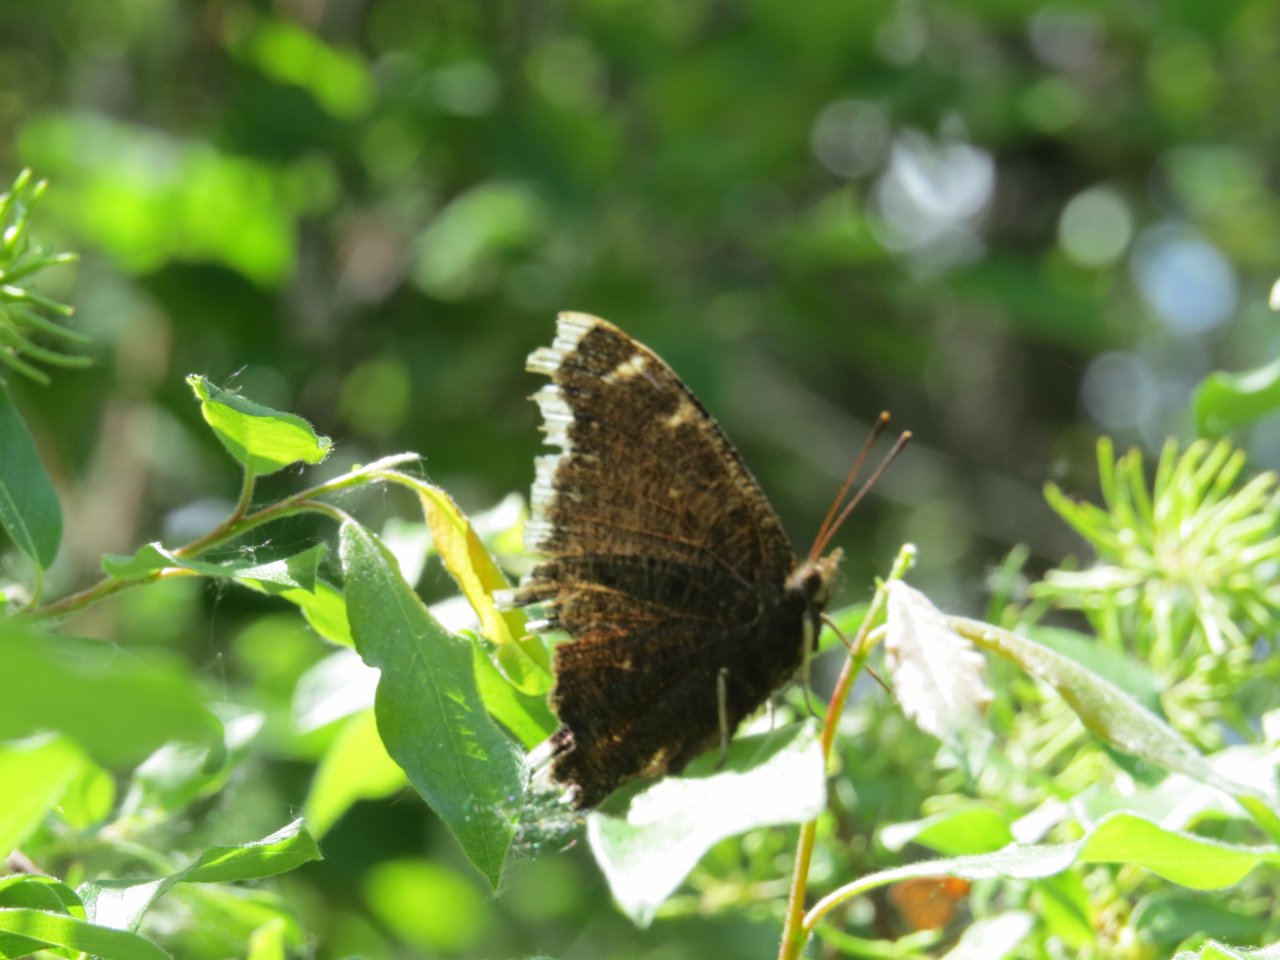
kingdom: Animalia
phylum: Arthropoda
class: Insecta
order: Lepidoptera
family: Nymphalidae
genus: Nymphalis
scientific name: Nymphalis antiopa
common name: Mourning Cloak
